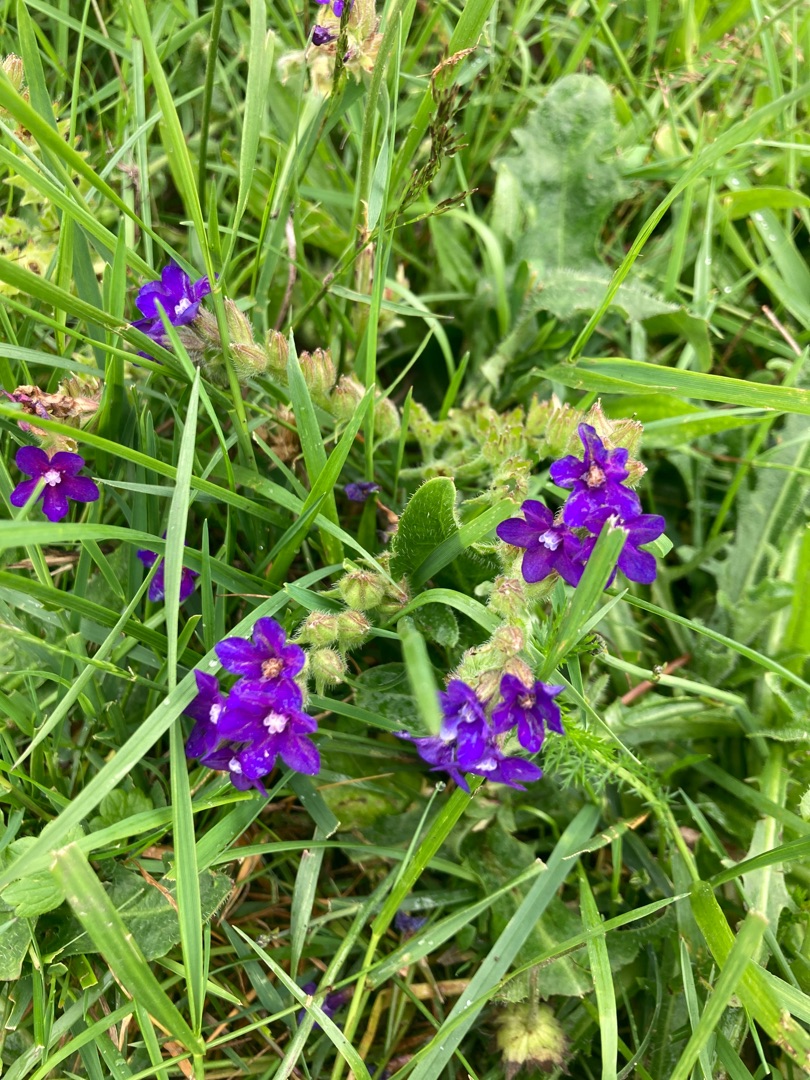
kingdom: Plantae
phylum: Tracheophyta
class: Magnoliopsida
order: Boraginales
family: Boraginaceae
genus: Anchusa
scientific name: Anchusa officinalis
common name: Læge-oksetunge
